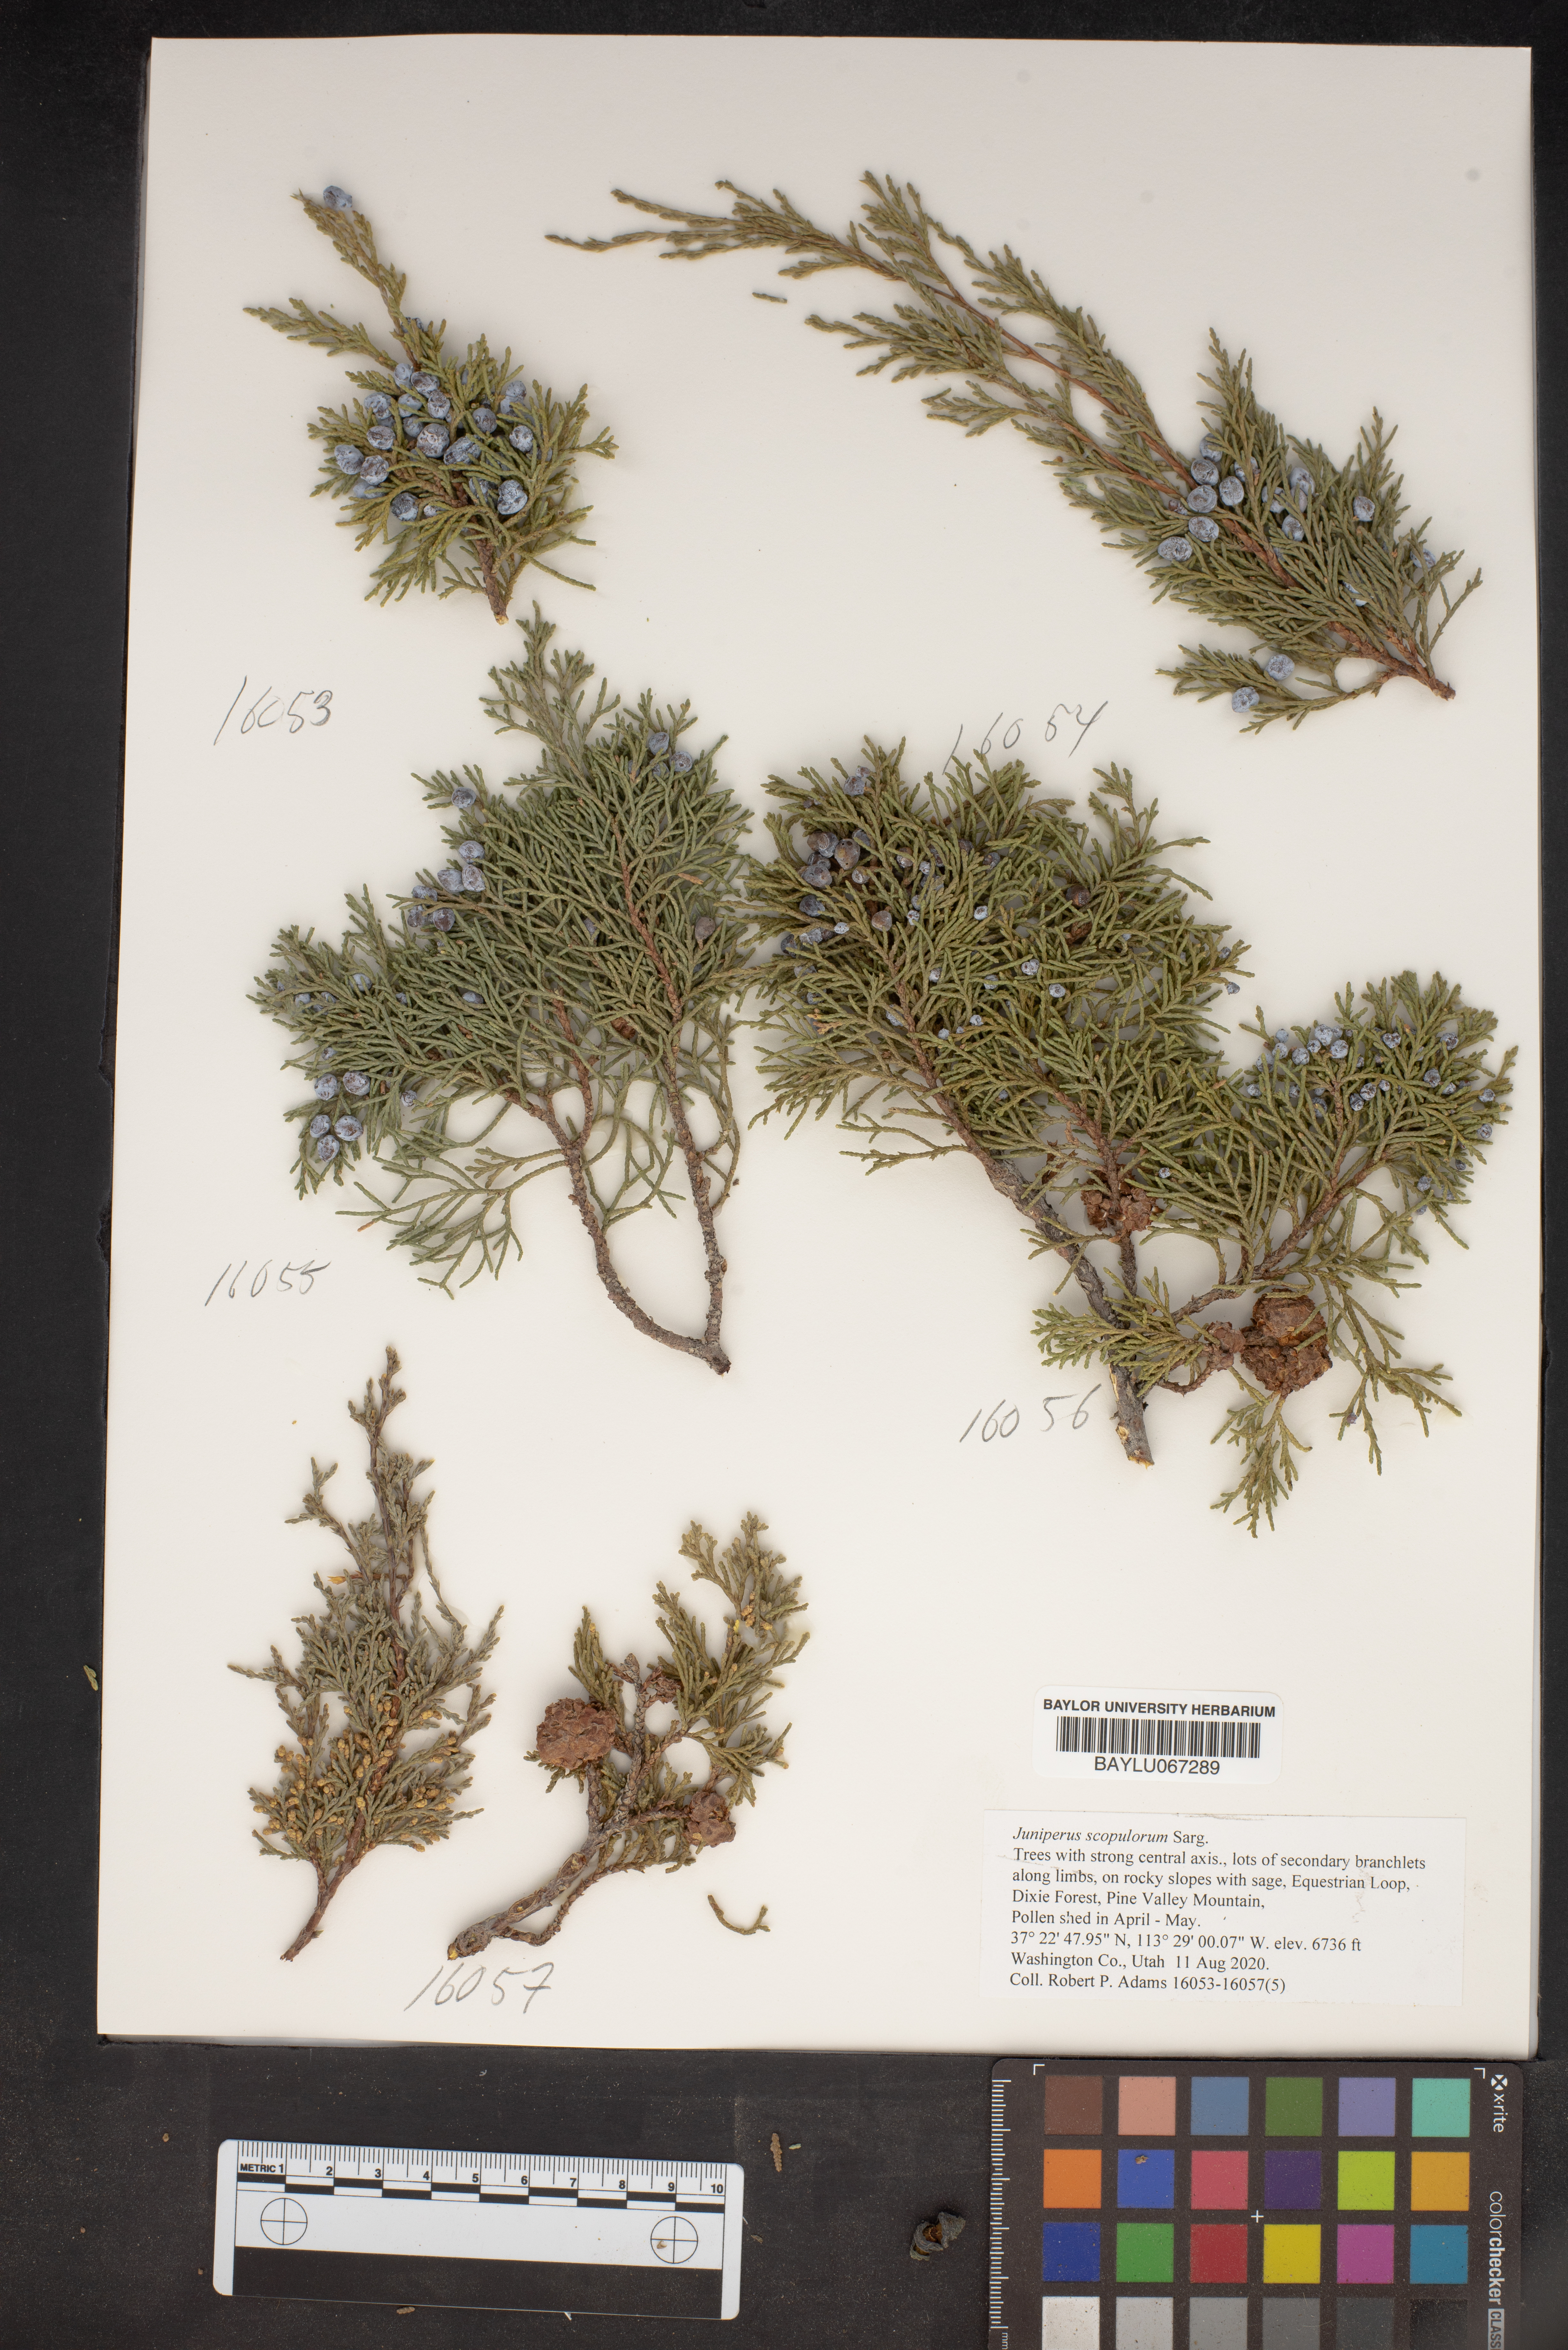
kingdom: Plantae
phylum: Tracheophyta
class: Pinopsida
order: Pinales
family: Cupressaceae
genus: Juniperus
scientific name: Juniperus scopulorum
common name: Rocky mountain juniper
